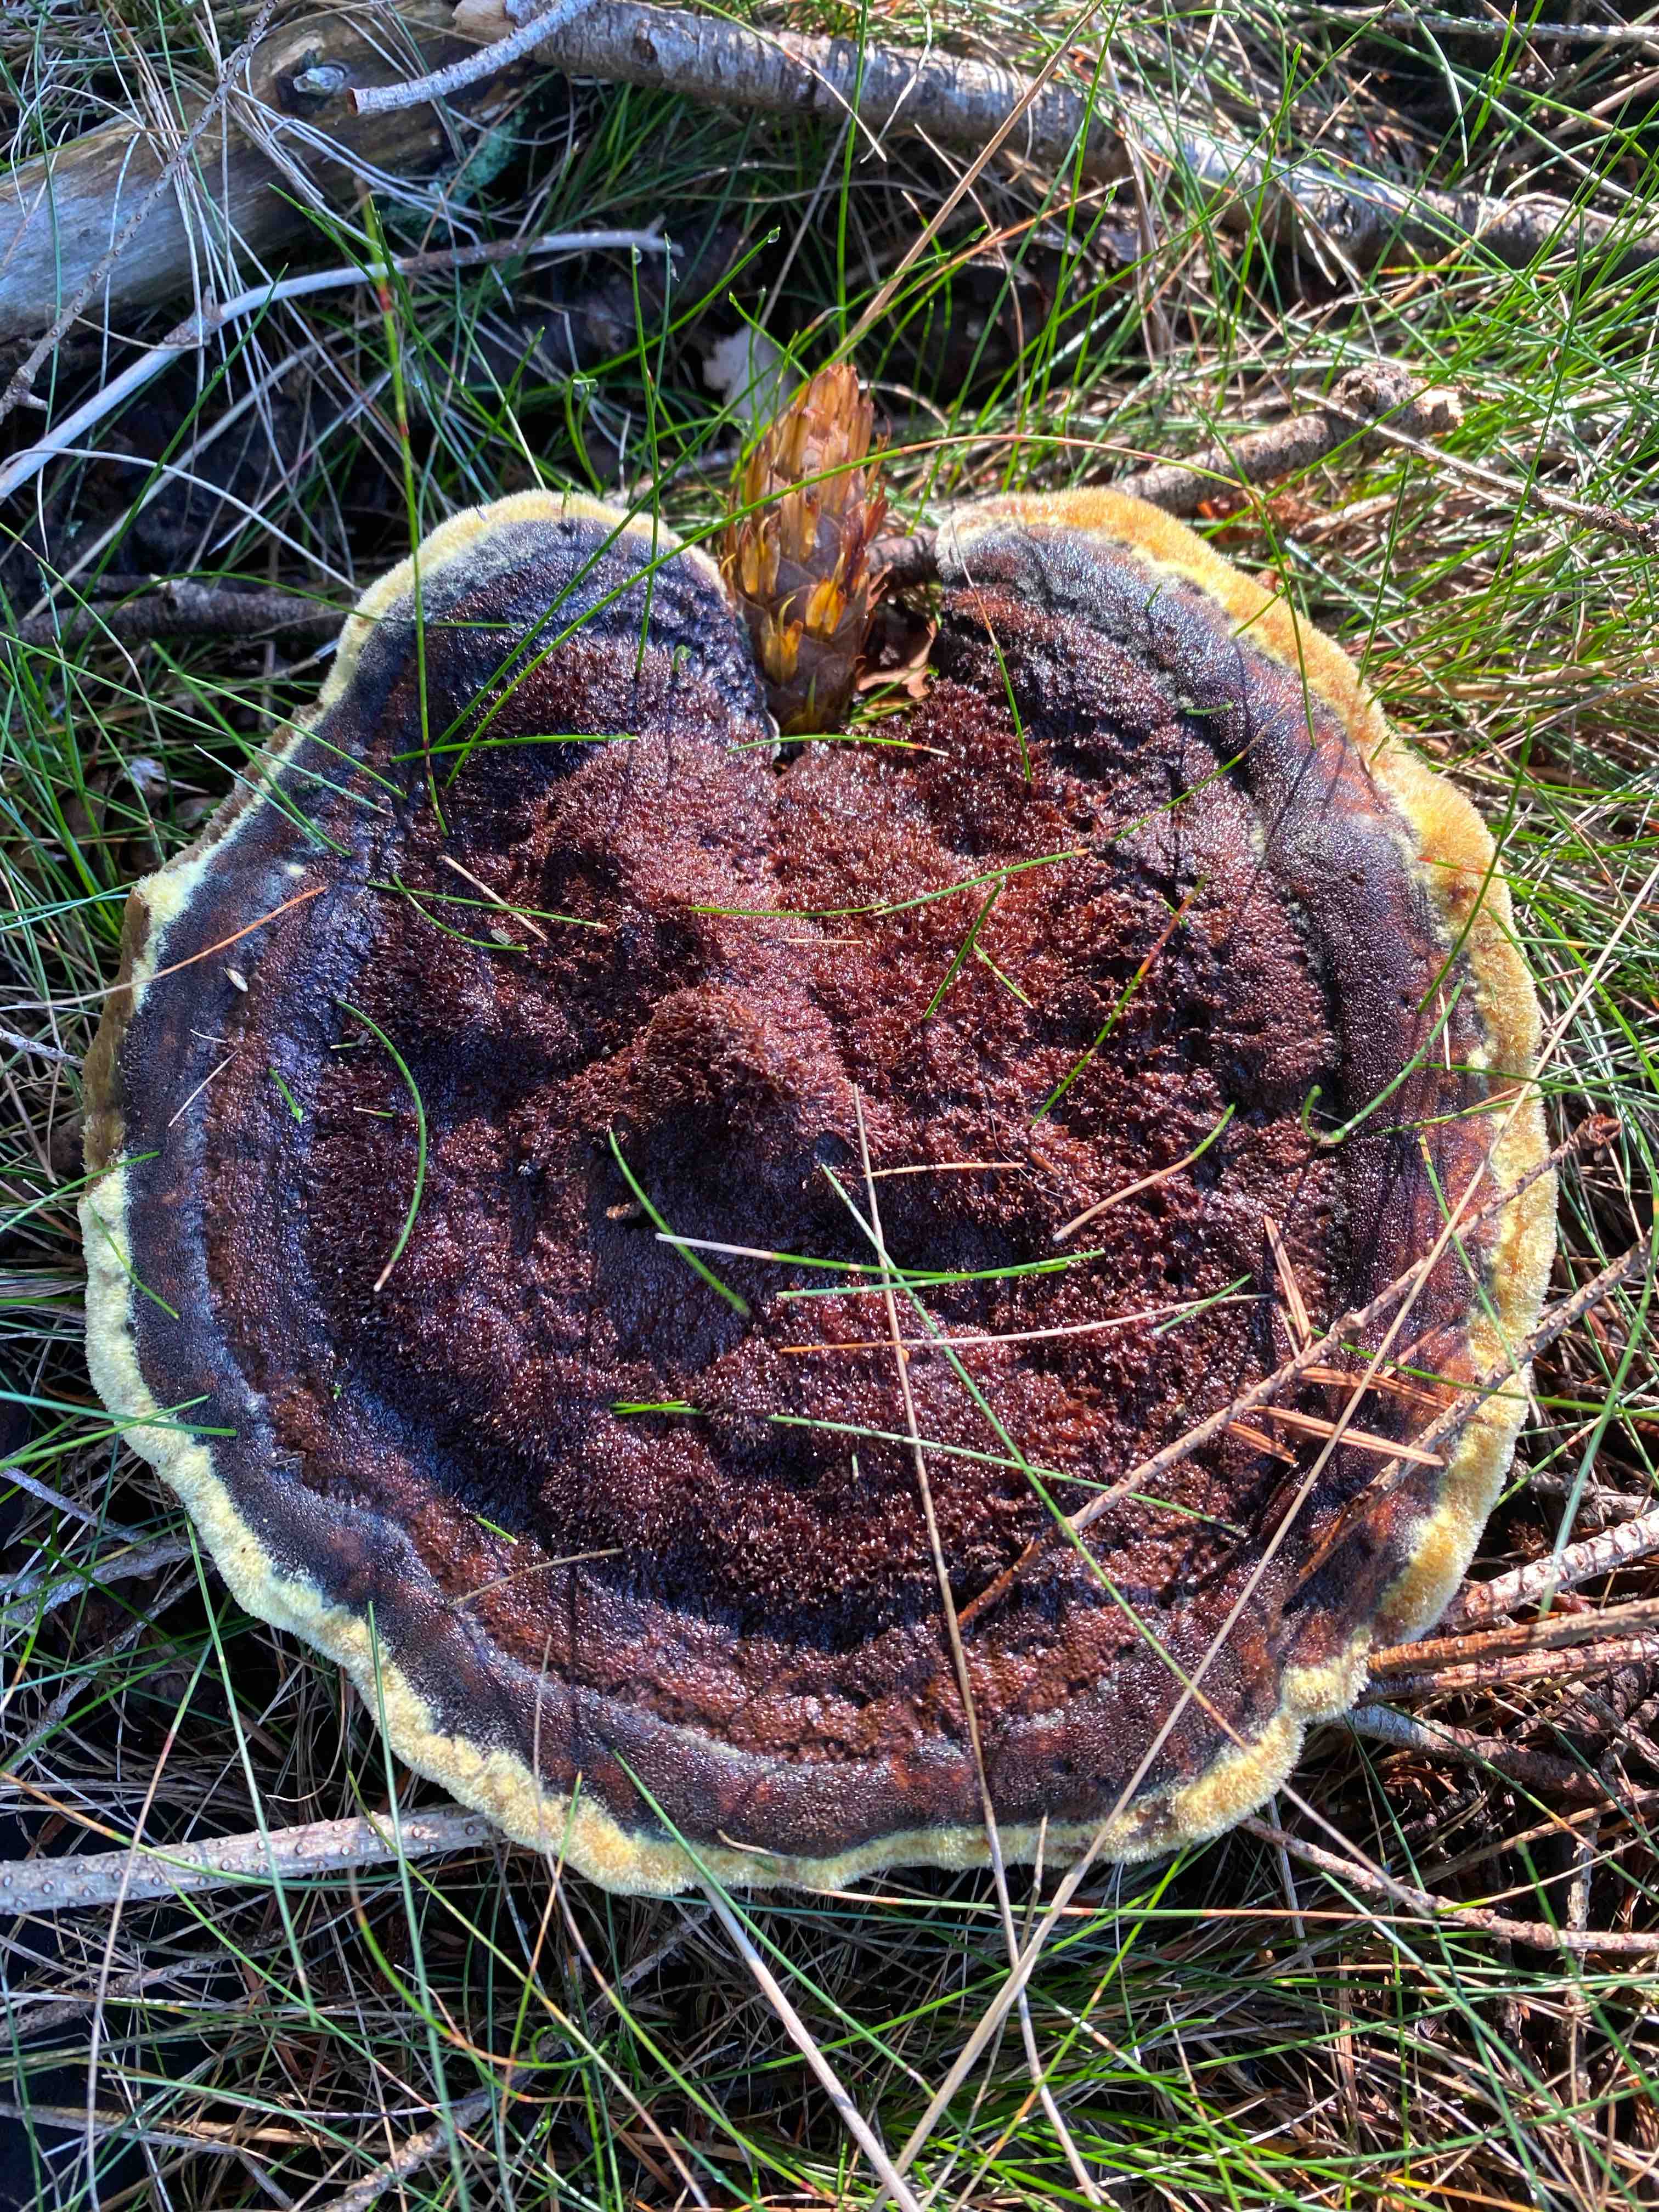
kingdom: Fungi
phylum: Basidiomycota
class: Agaricomycetes
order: Polyporales
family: Laetiporaceae
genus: Phaeolus
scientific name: Phaeolus schweinitzii
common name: brunporesvamp
